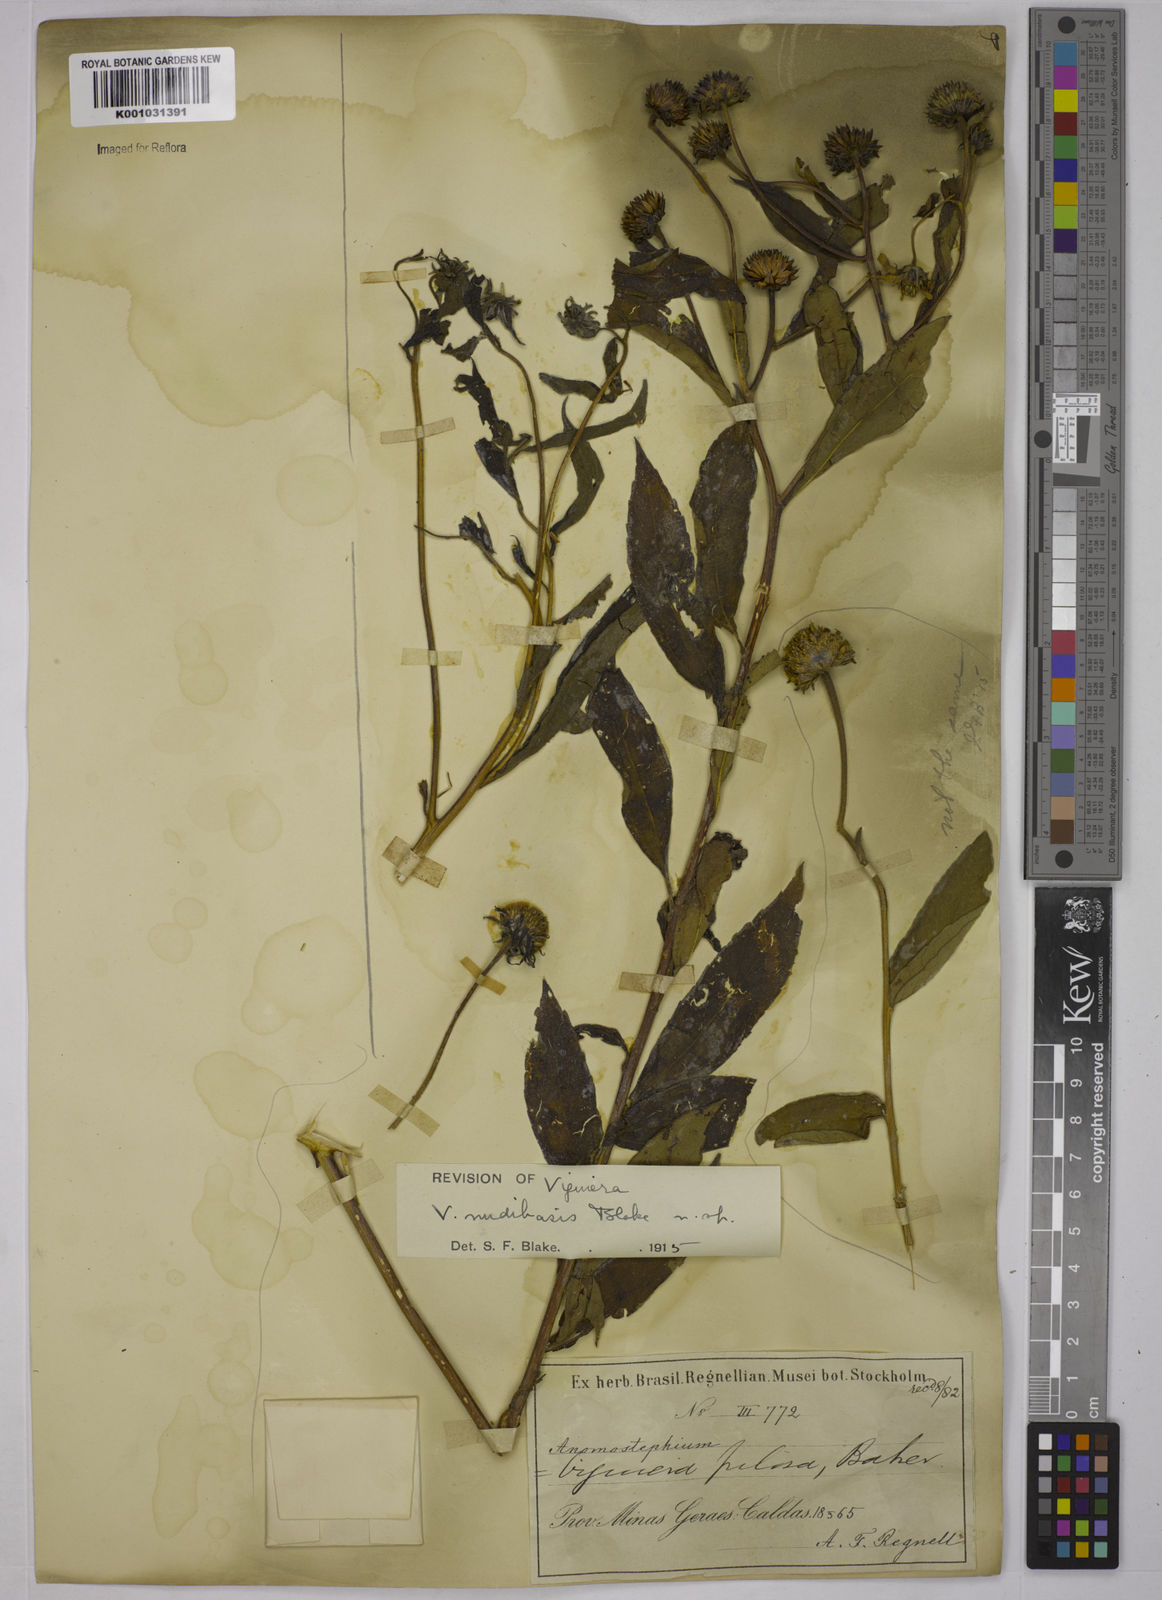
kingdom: Plantae
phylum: Tracheophyta
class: Magnoliopsida
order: Asterales
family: Asteraceae
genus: Aldama
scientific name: Aldama nudibasilaris
